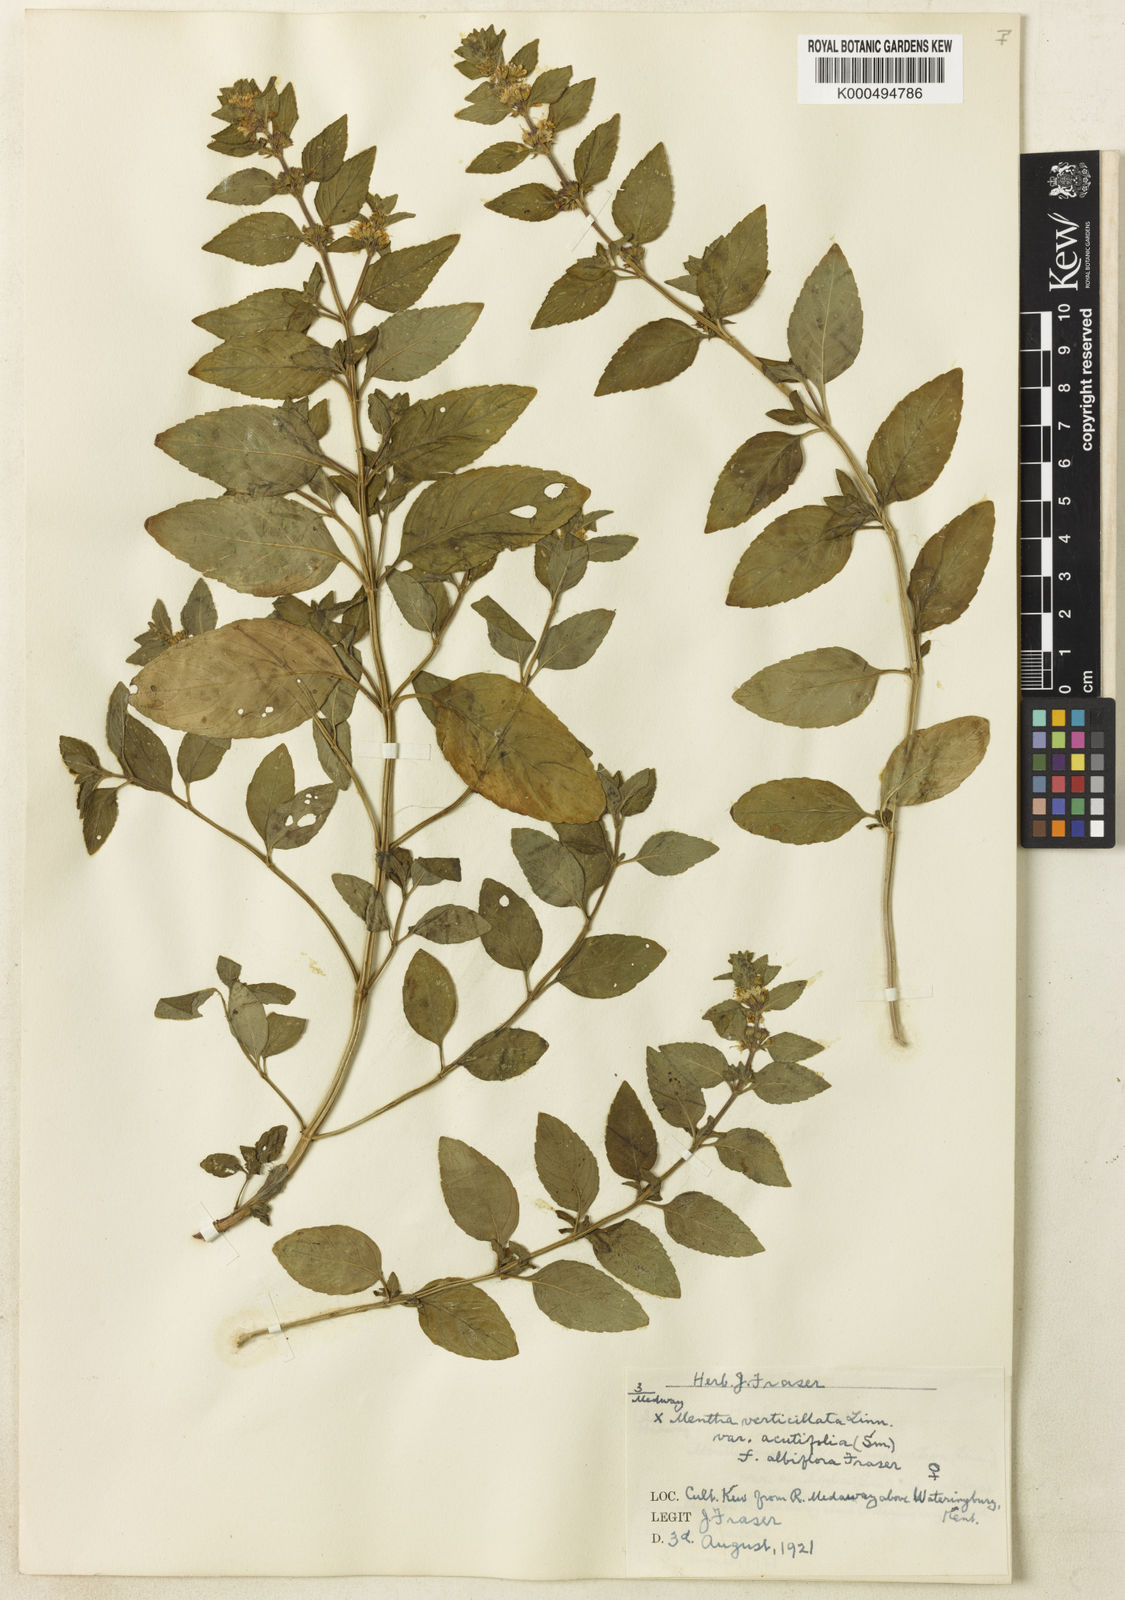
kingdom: Plantae
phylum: Tracheophyta
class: Magnoliopsida
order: Lamiales
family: Lamiaceae
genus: Mentha
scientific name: Mentha verticillata
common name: Mint
